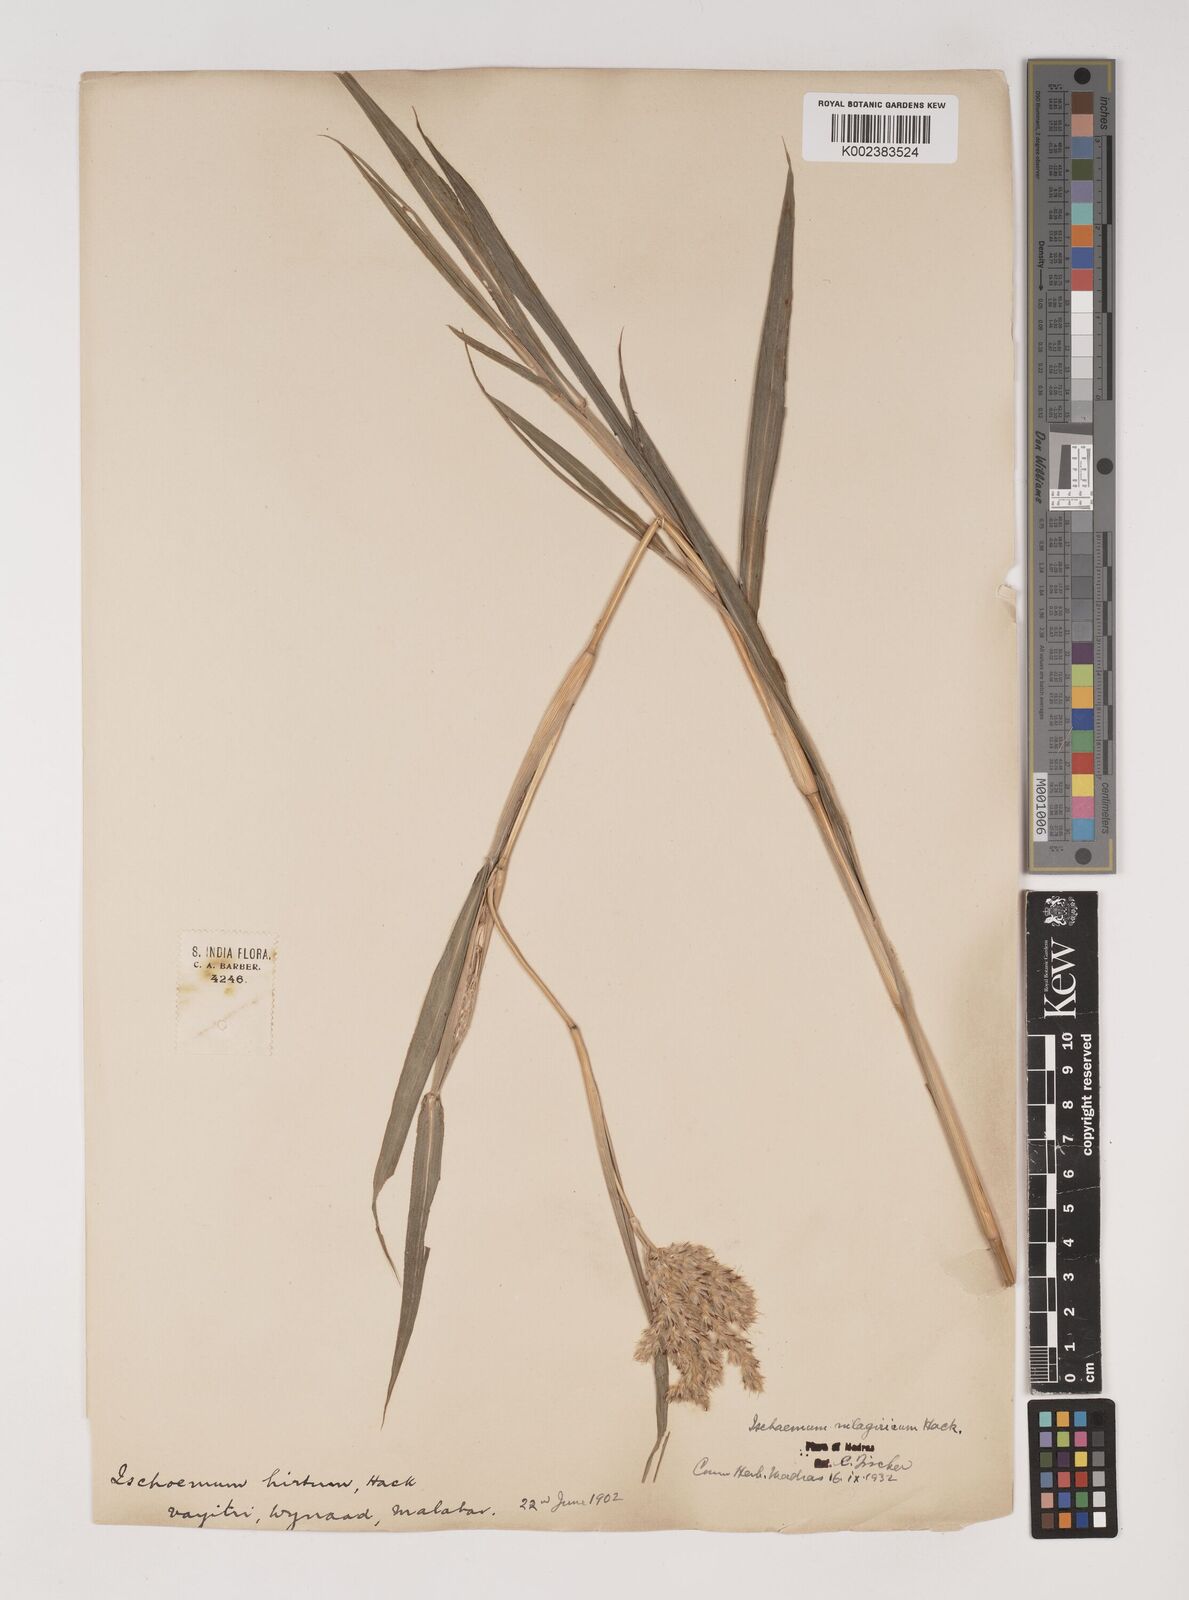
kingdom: Plantae
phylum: Tracheophyta
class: Liliopsida
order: Poales
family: Poaceae
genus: Ischaemum
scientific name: Ischaemum
